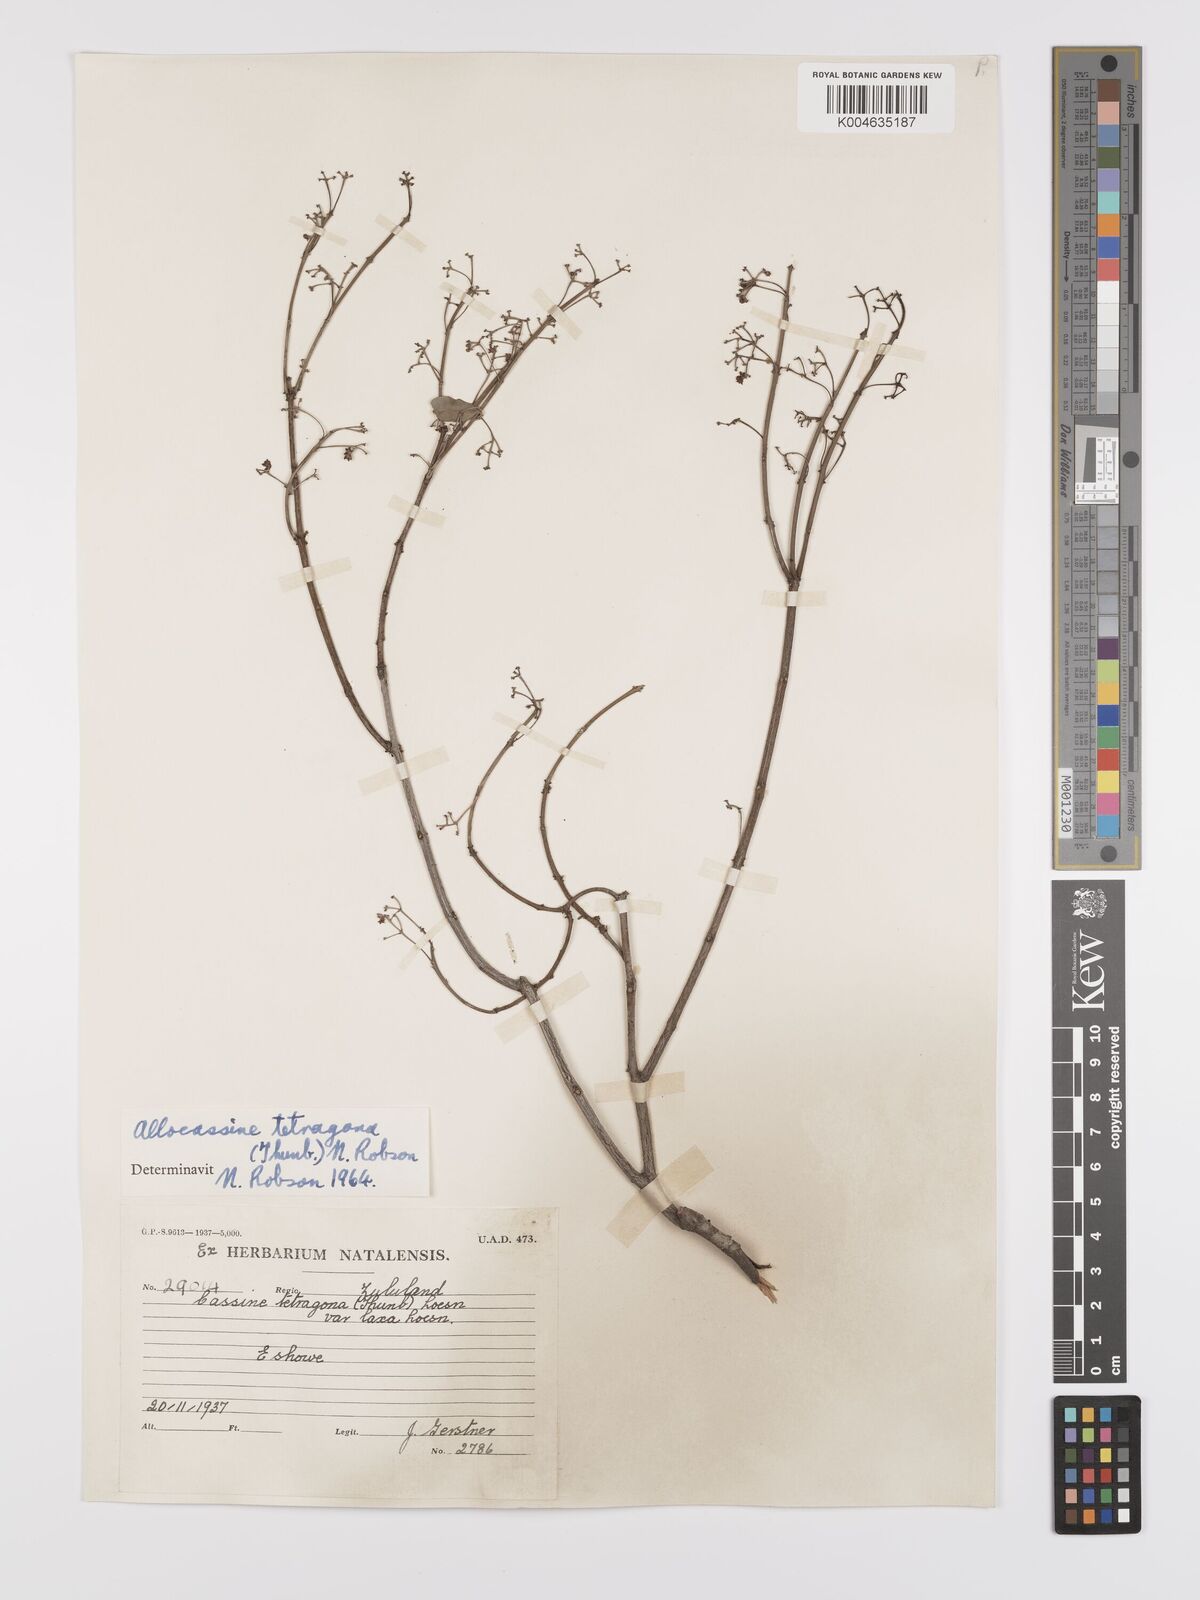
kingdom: Plantae
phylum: Tracheophyta
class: Magnoliopsida
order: Celastrales
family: Celastraceae
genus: Lauridia
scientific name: Lauridia tetragona
